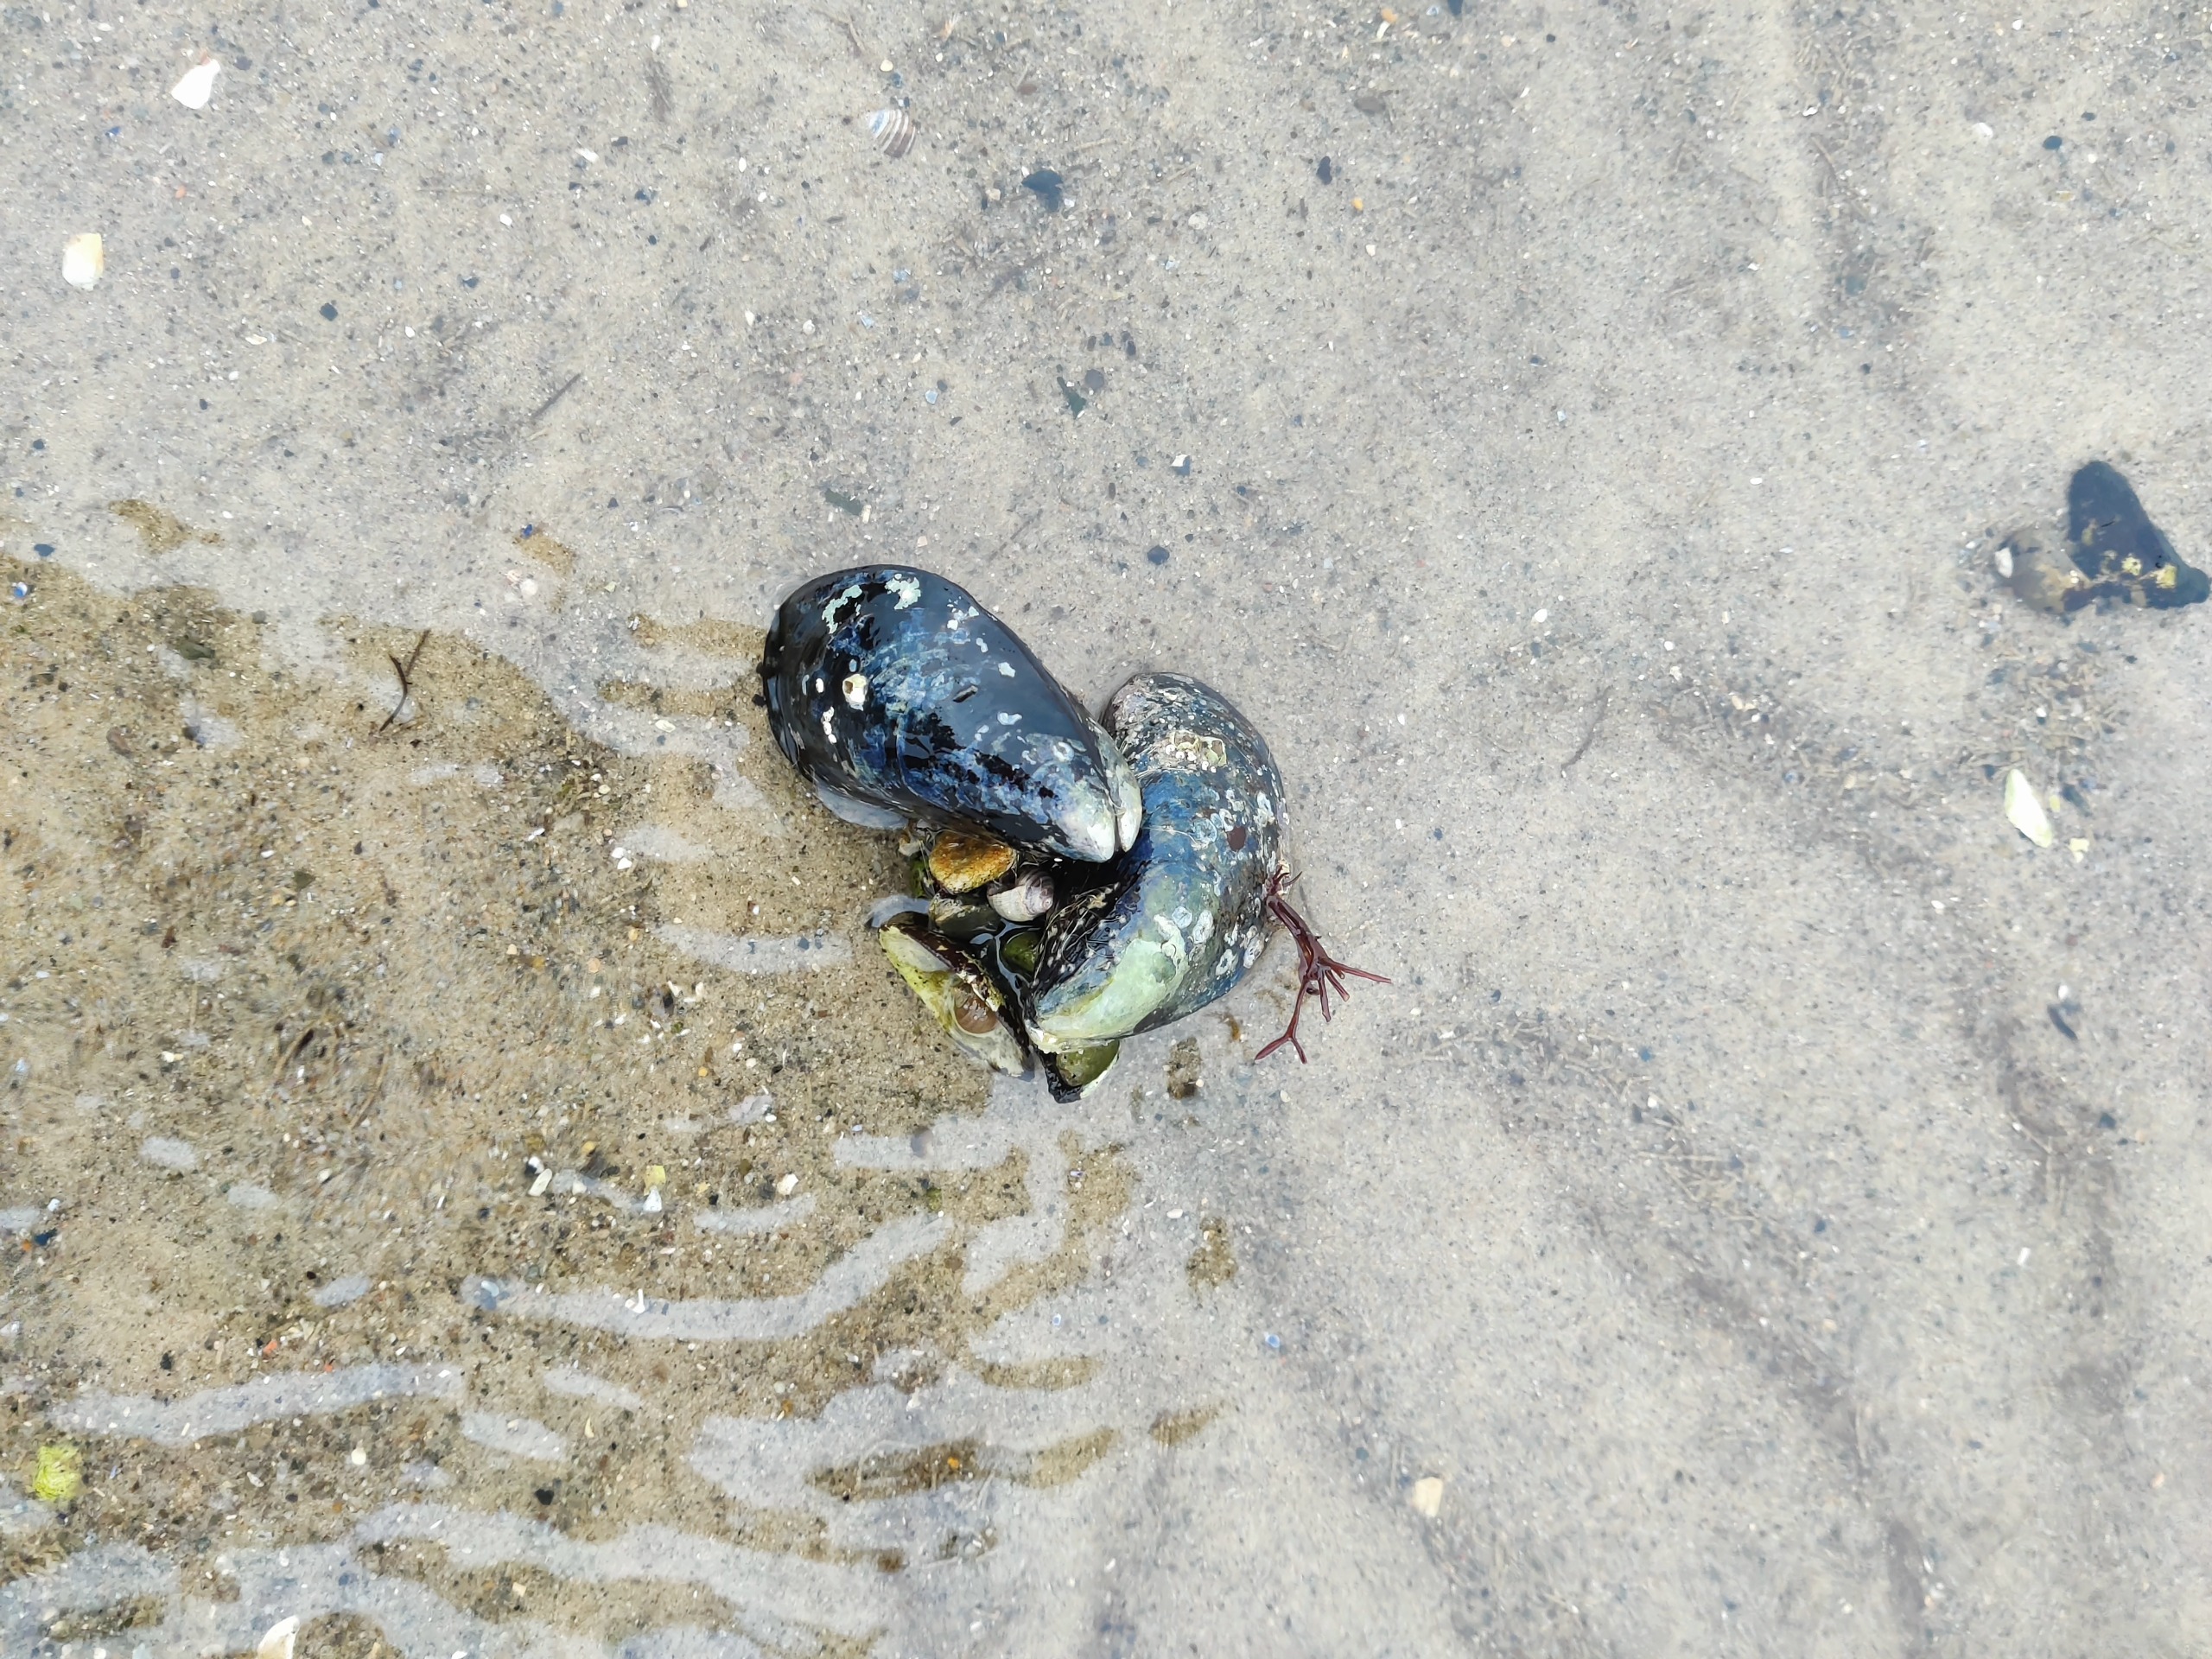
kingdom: Animalia
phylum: Mollusca
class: Bivalvia
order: Mytilida
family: Mytilidae
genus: Mytilus
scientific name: Mytilus edulis
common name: Blåmusling
